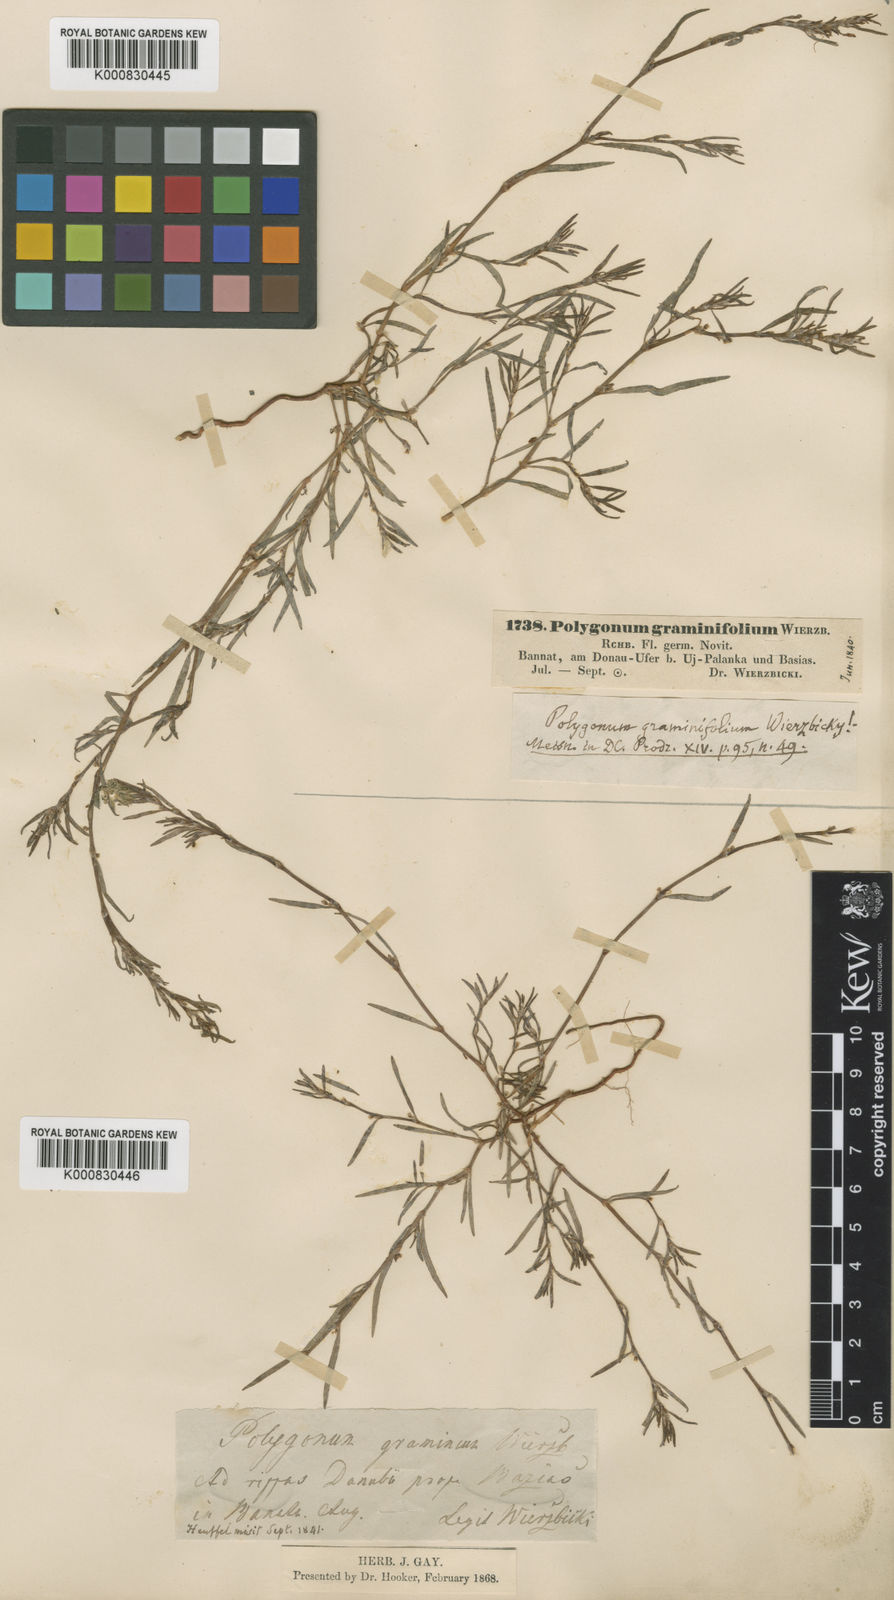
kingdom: Plantae
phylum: Tracheophyta
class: Magnoliopsida
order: Caryophyllales
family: Polygonaceae
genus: Polygonum
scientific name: Polygonum
